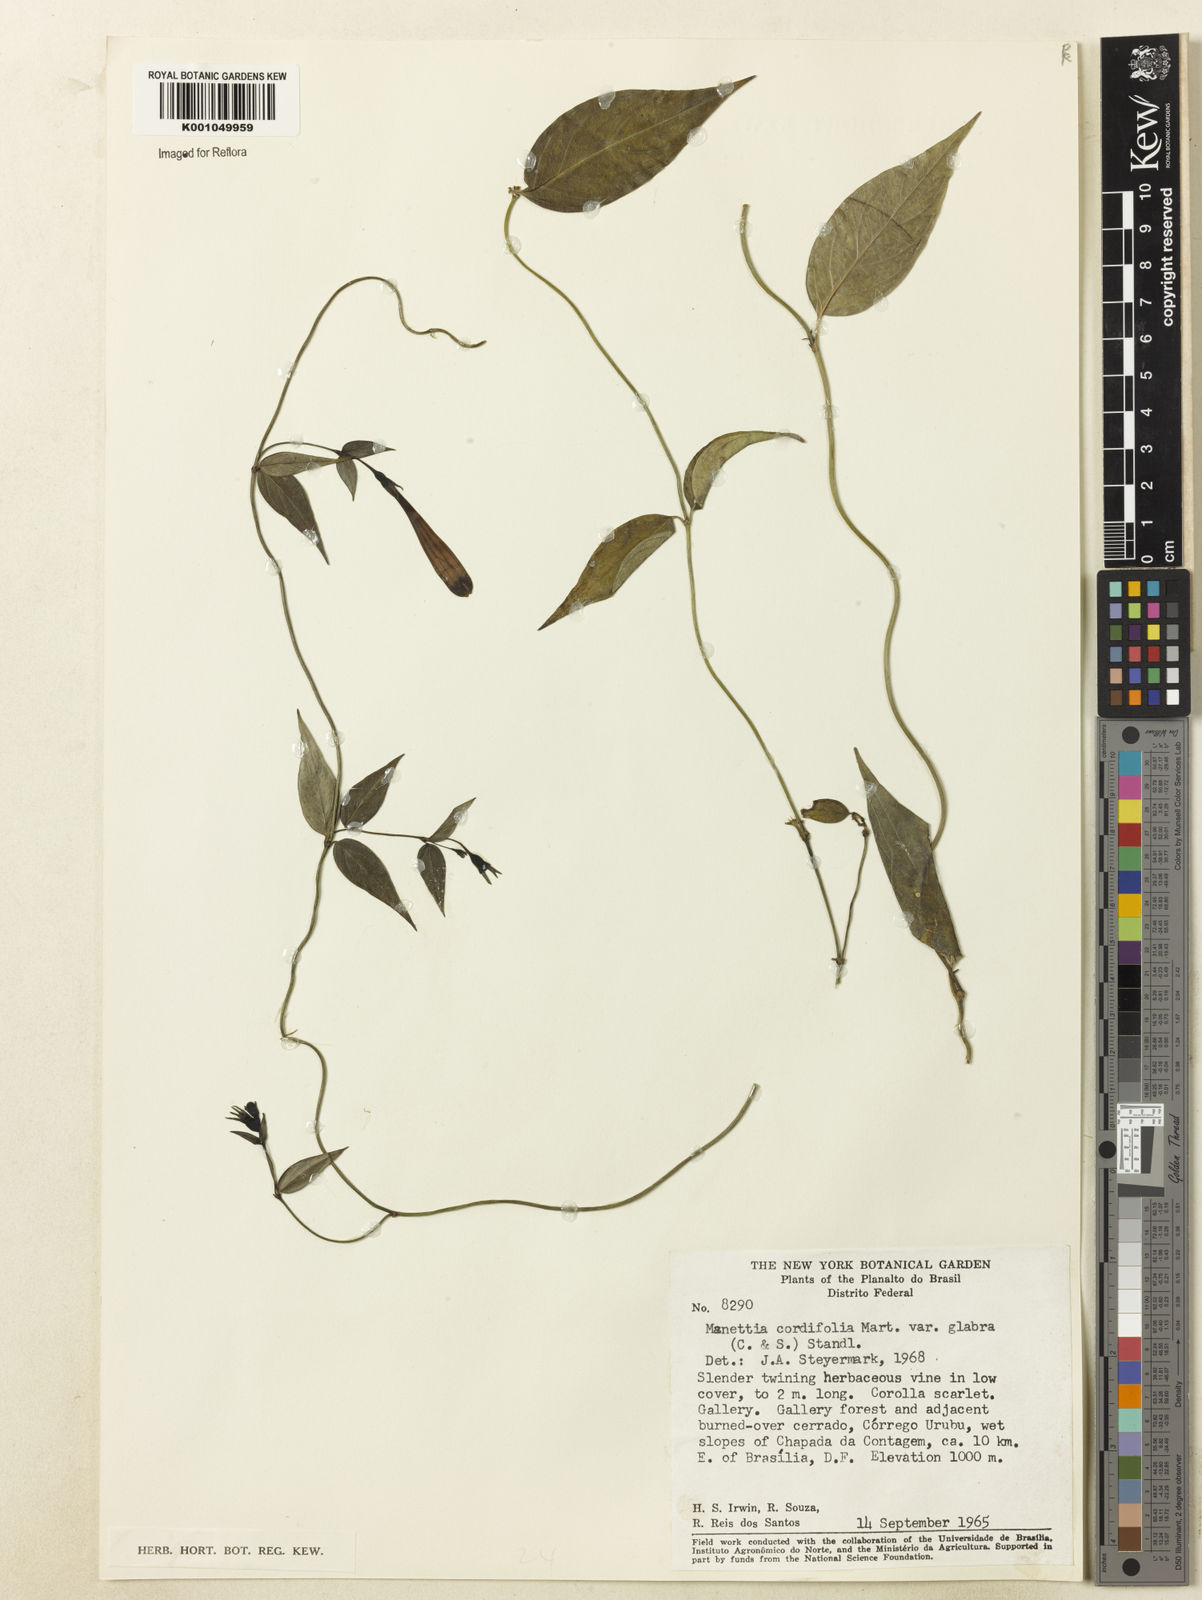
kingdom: Plantae
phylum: Tracheophyta
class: Magnoliopsida
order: Gentianales
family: Rubiaceae
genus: Manettia
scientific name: Manettia cordifolia
